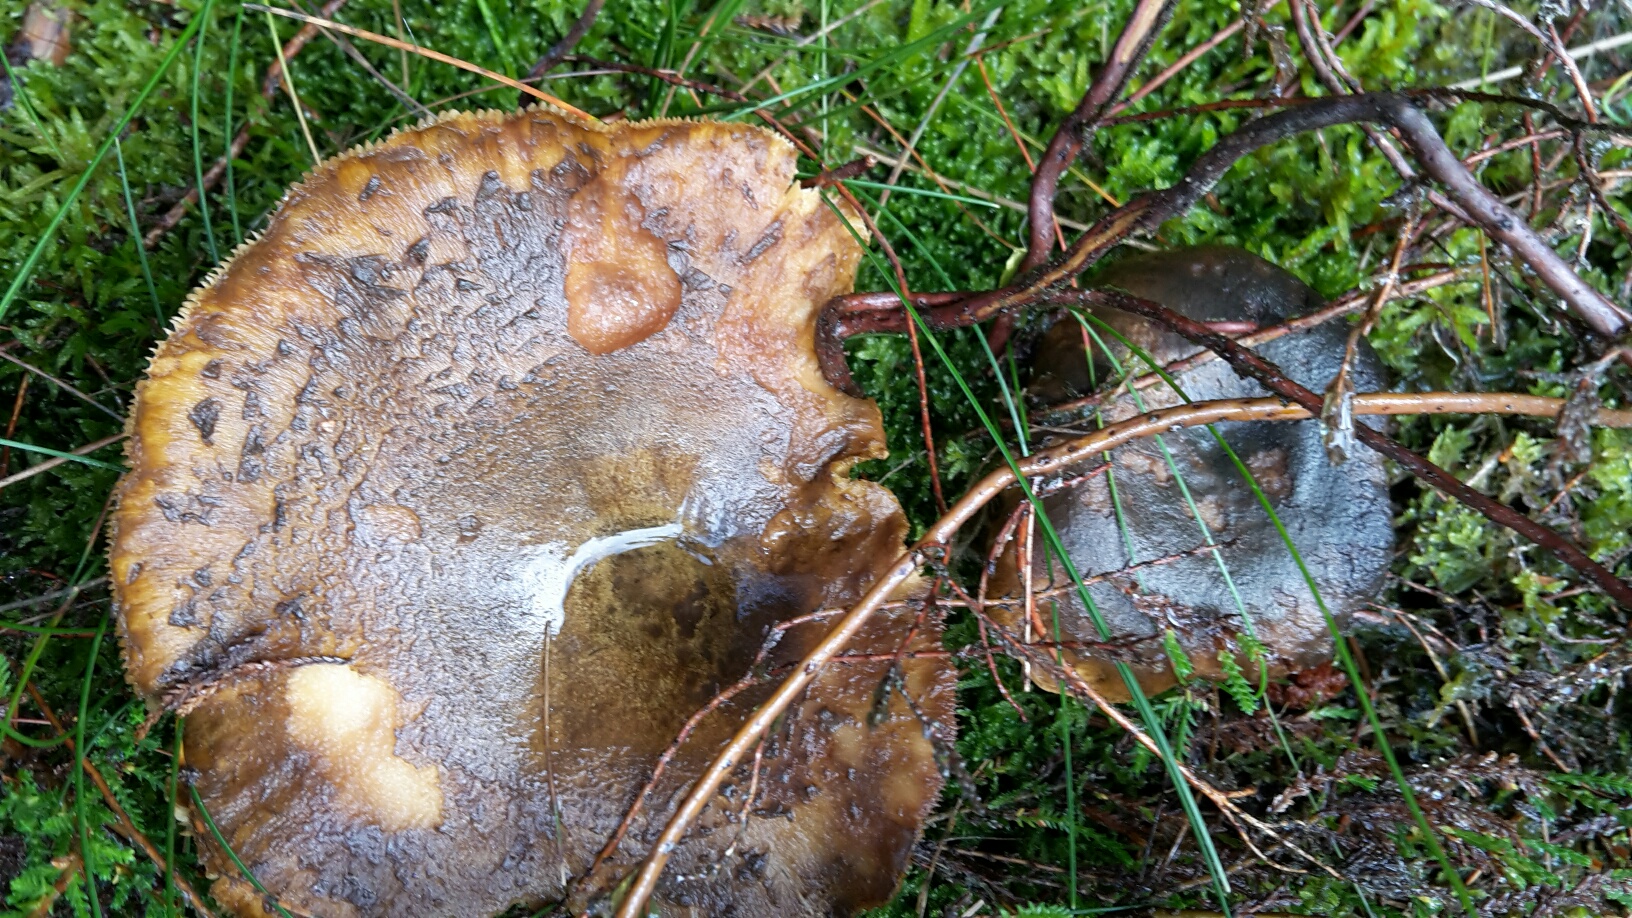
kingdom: Fungi
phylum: Basidiomycota
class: Agaricomycetes
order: Russulales
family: Russulaceae
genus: Lactarius
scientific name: Lactarius necator
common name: manddraber-mælkehat
